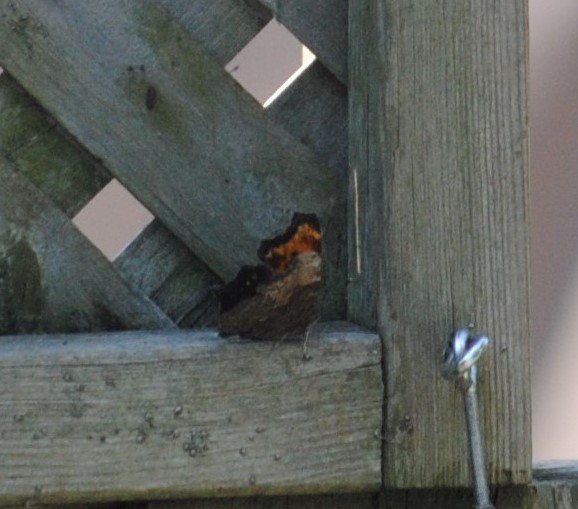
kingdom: Animalia
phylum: Arthropoda
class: Insecta
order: Lepidoptera
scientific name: Lepidoptera
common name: Butterflies
